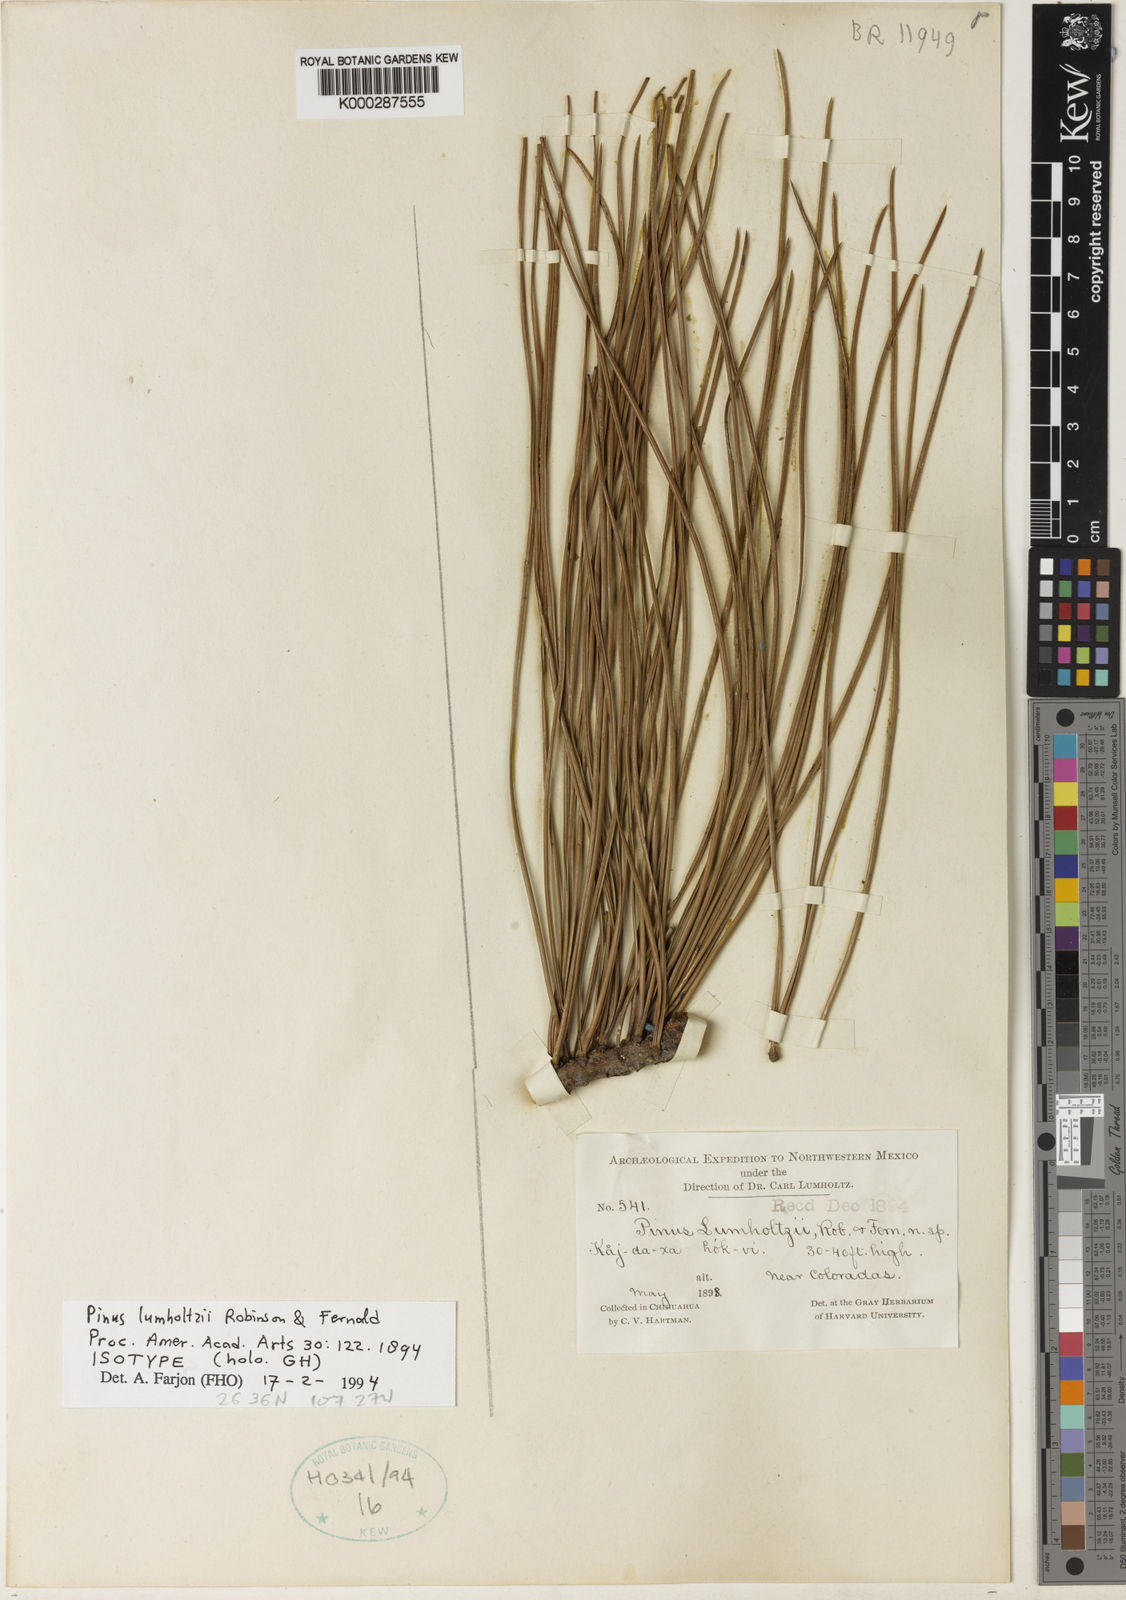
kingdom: Plantae
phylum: Tracheophyta
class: Pinopsida
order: Pinales
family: Pinaceae
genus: Pinus
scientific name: Pinus lumholtzii
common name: Lumholtz's pine
